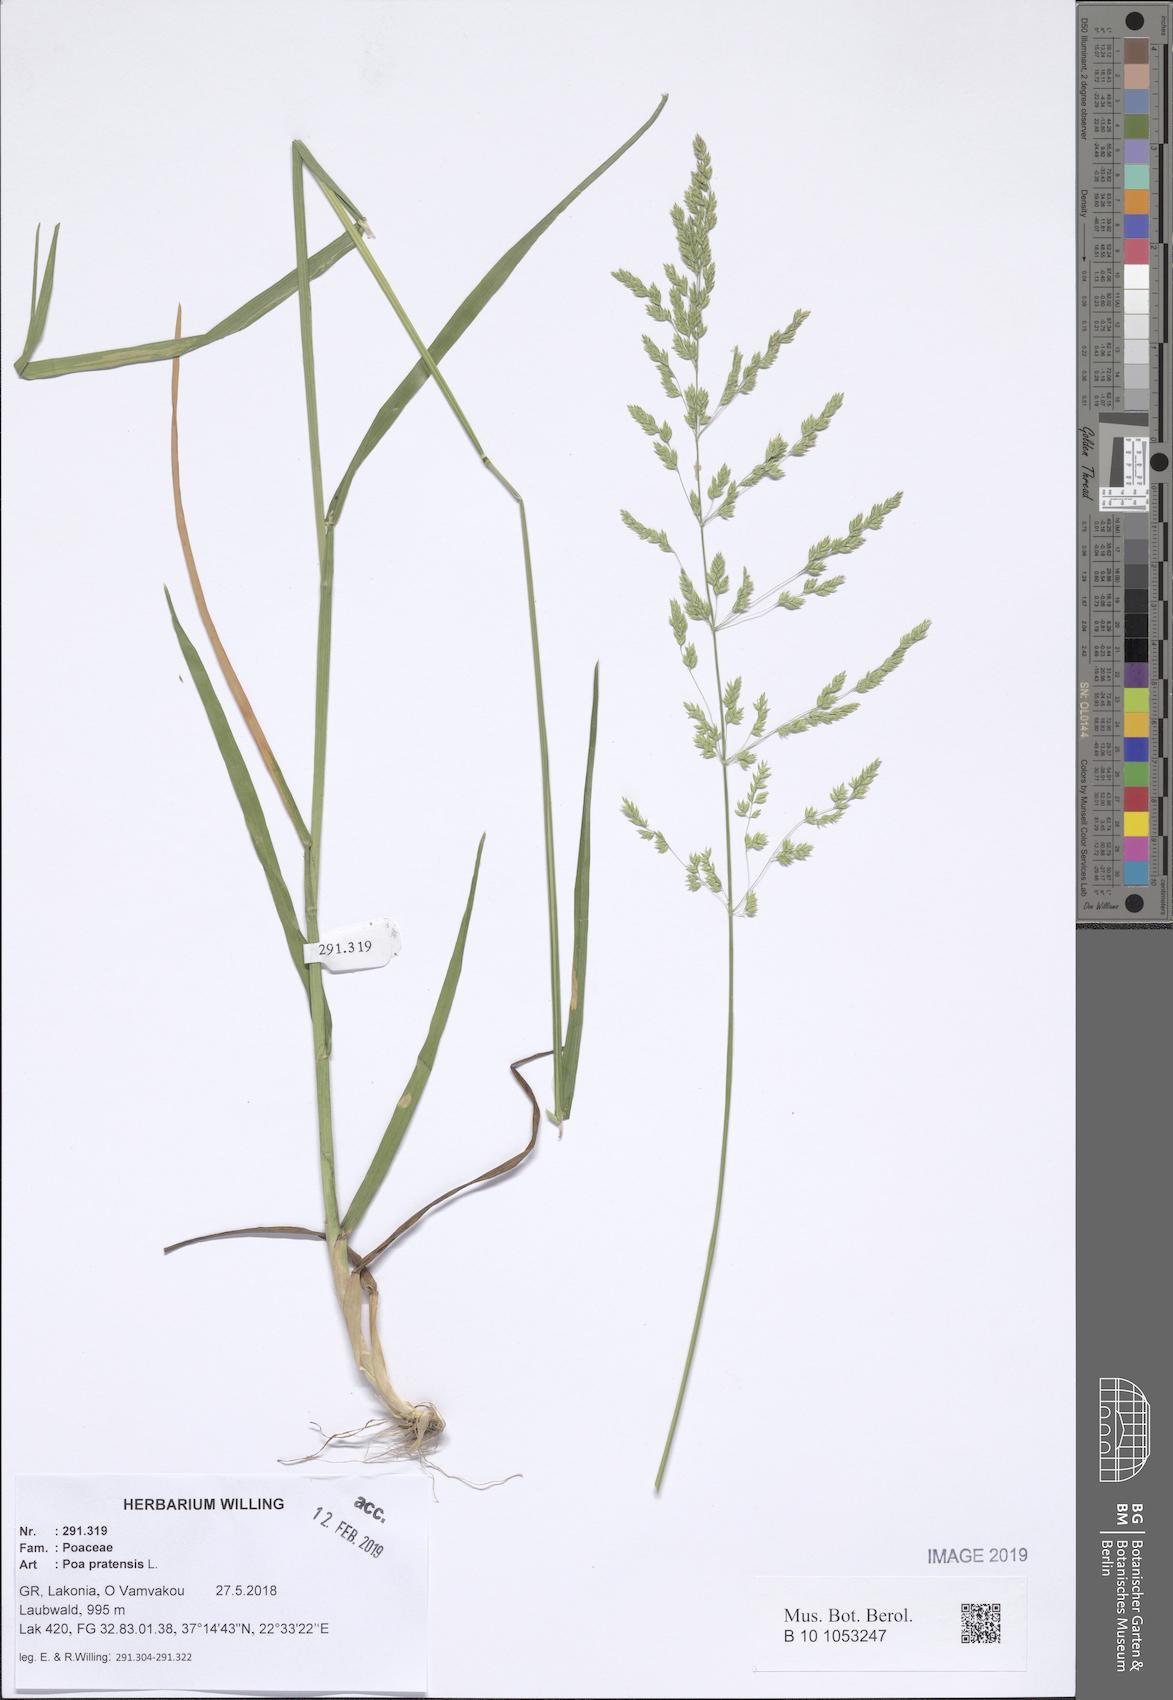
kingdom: Plantae
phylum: Tracheophyta
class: Liliopsida
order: Poales
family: Poaceae
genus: Poa
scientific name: Poa pratensis
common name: Kentucky bluegrass
